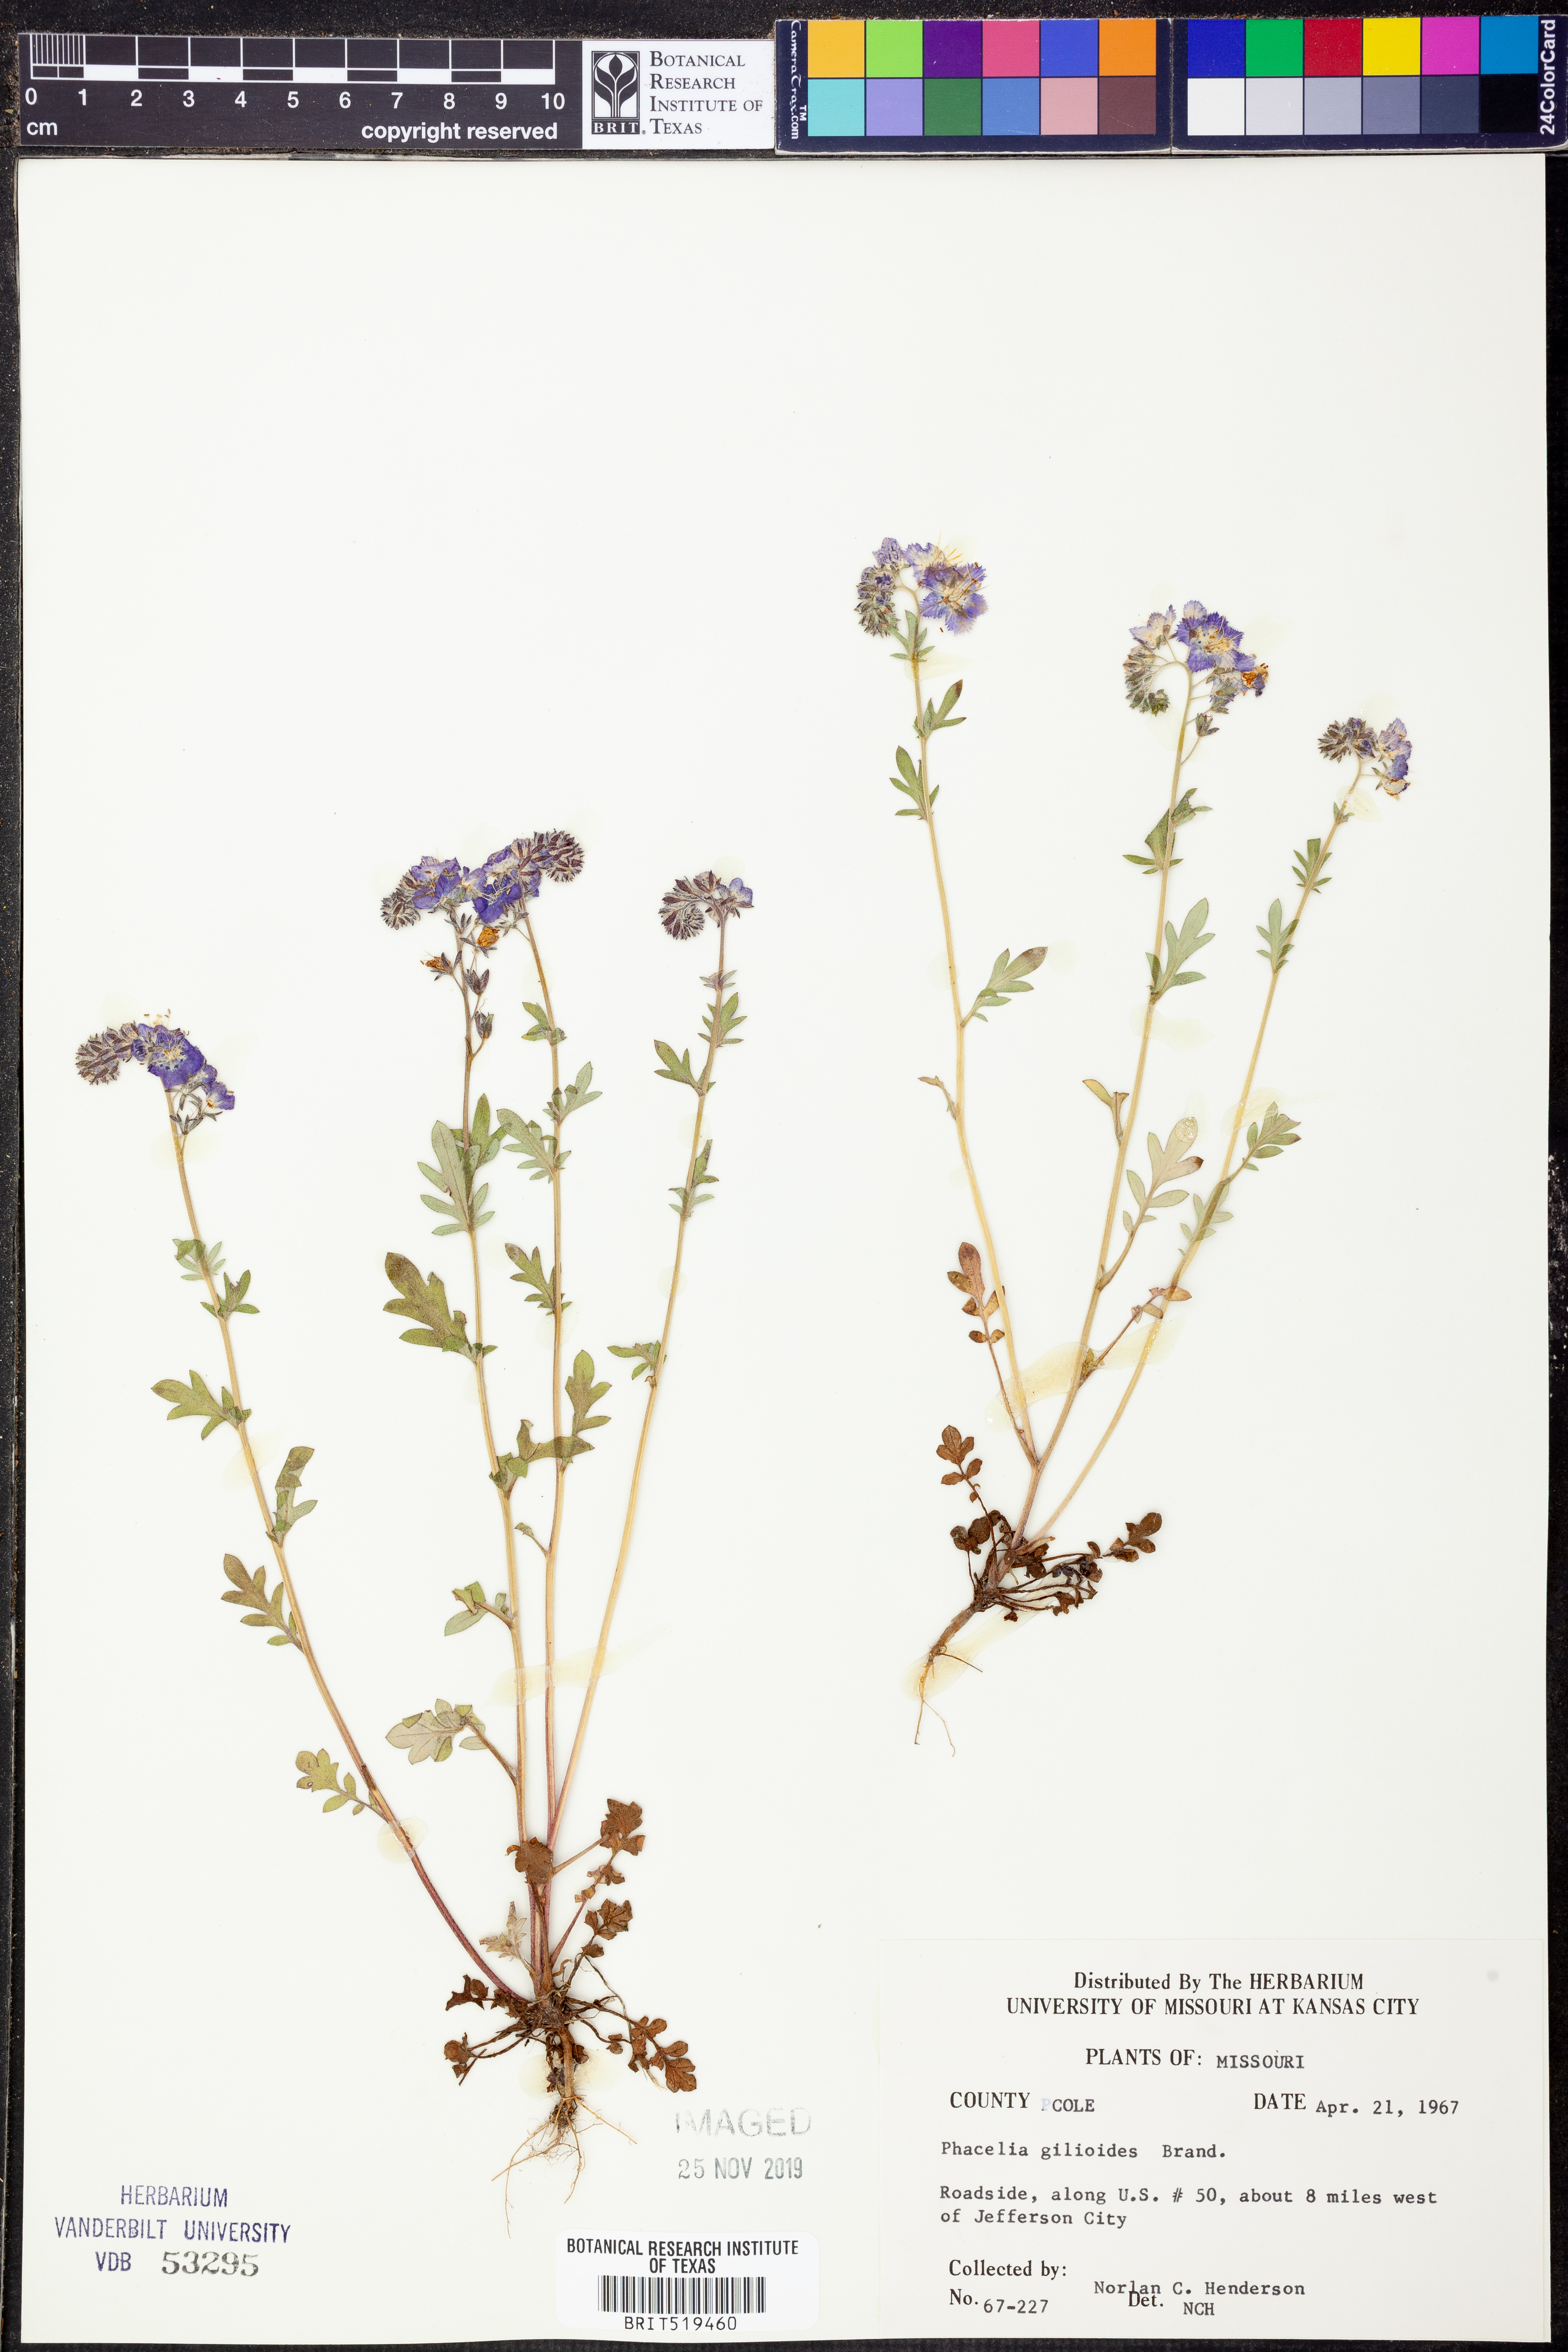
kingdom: Plantae
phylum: Tracheophyta
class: Magnoliopsida
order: Boraginales
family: Hydrophyllaceae
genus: Phacelia
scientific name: Phacelia gilioides
